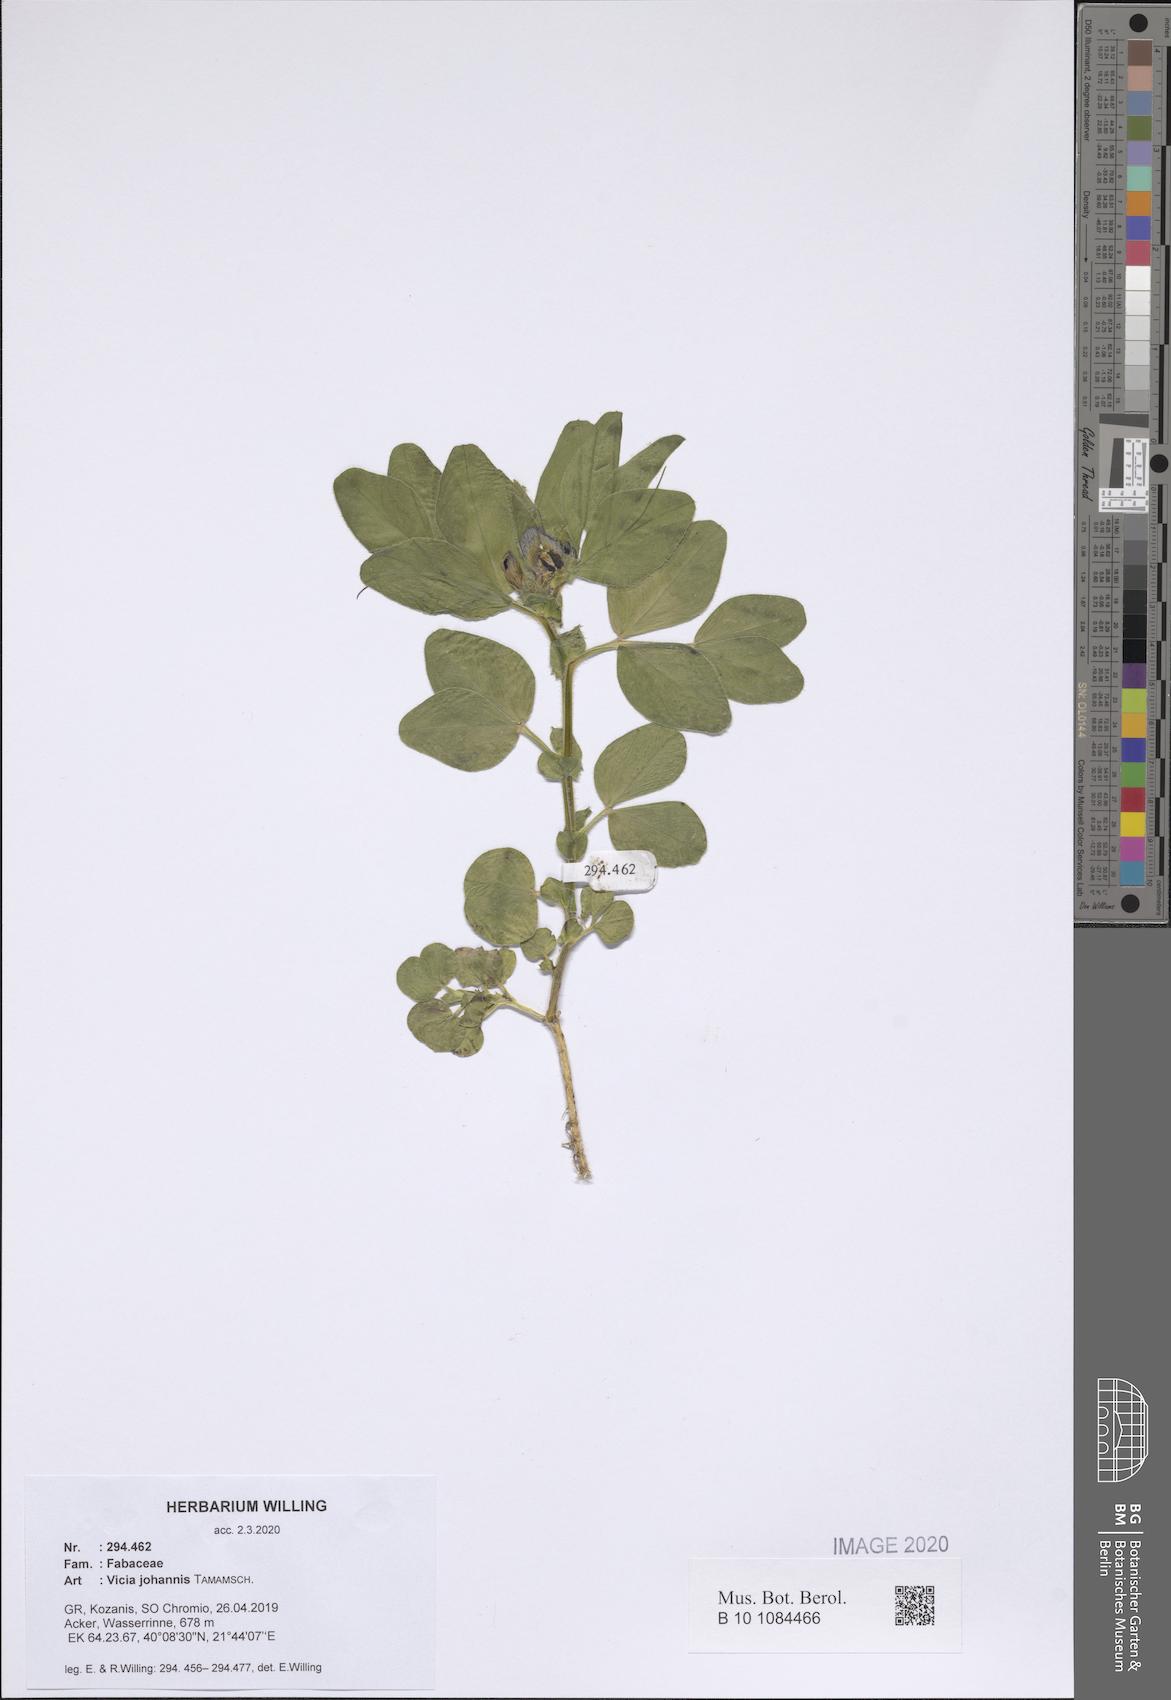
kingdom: Plantae
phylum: Tracheophyta
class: Magnoliopsida
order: Fabales
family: Fabaceae
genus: Vicia
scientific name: Vicia johannis
